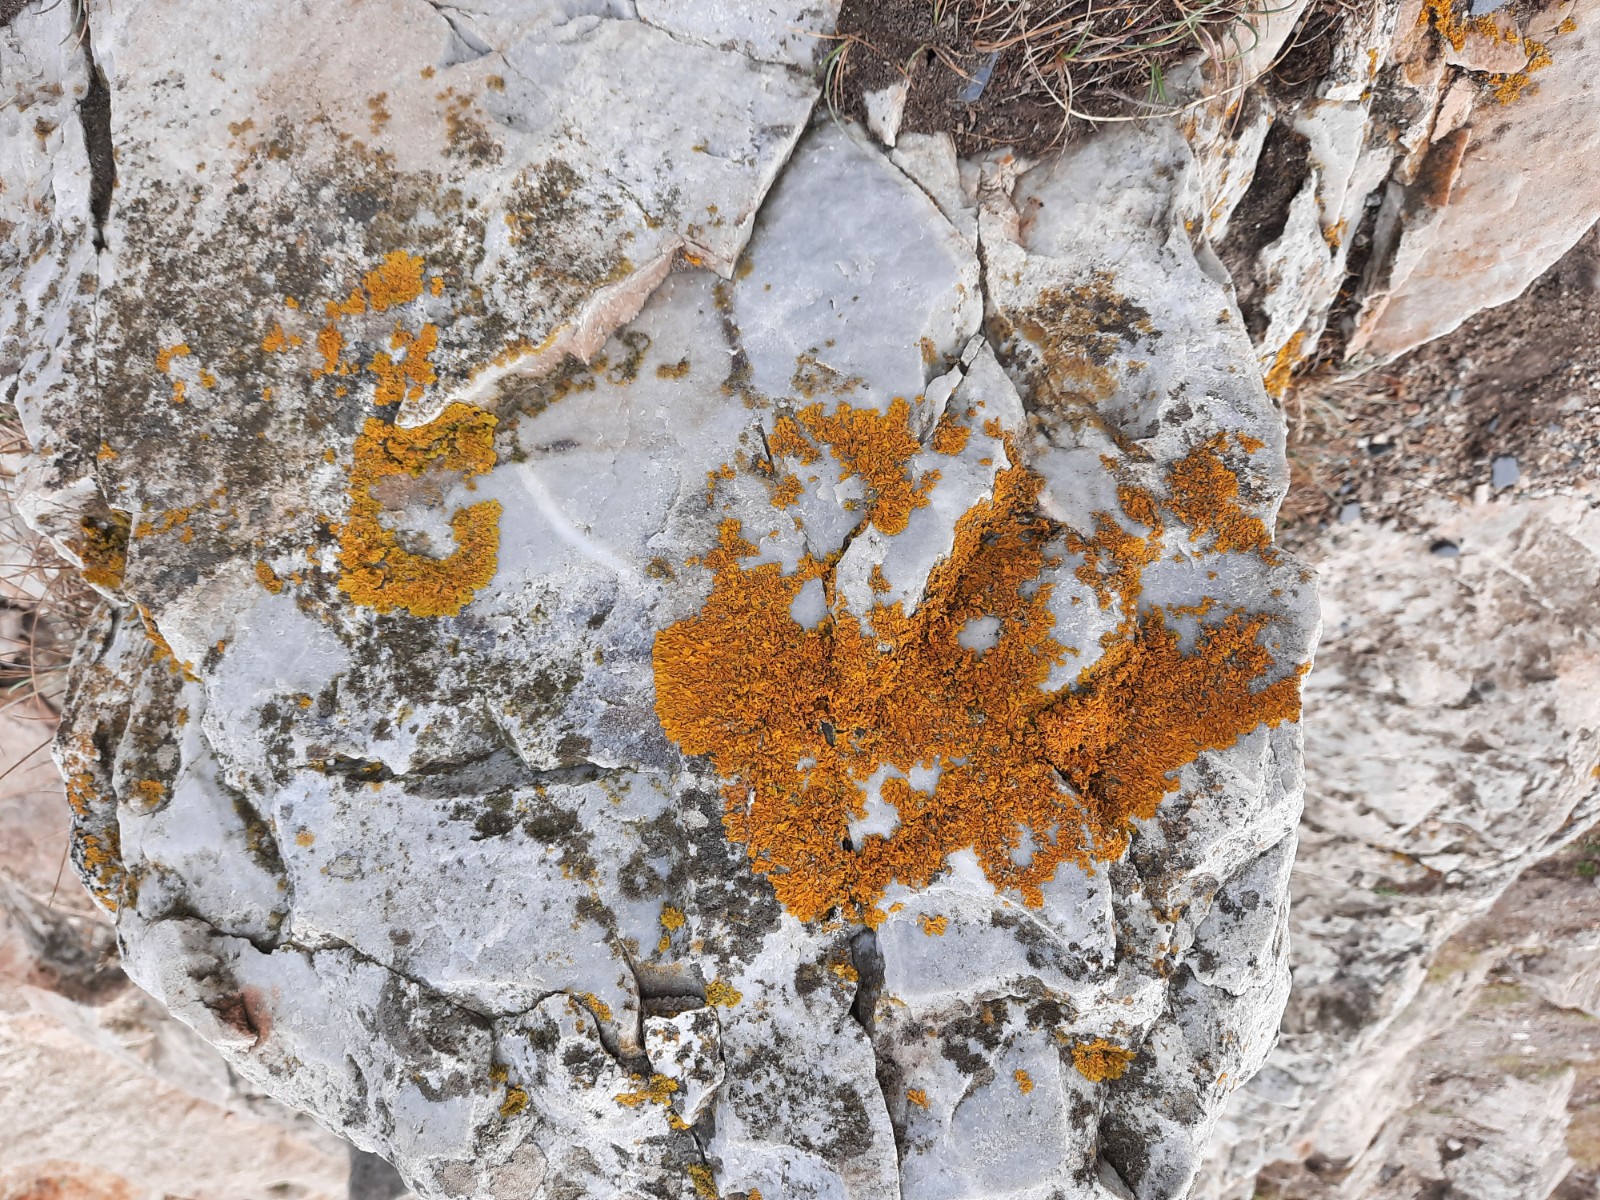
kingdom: Fungi
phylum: Ascomycota
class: Lecanoromycetes
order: Teloschistales
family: Teloschistaceae
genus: Xanthoria
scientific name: Xanthoria aureola
